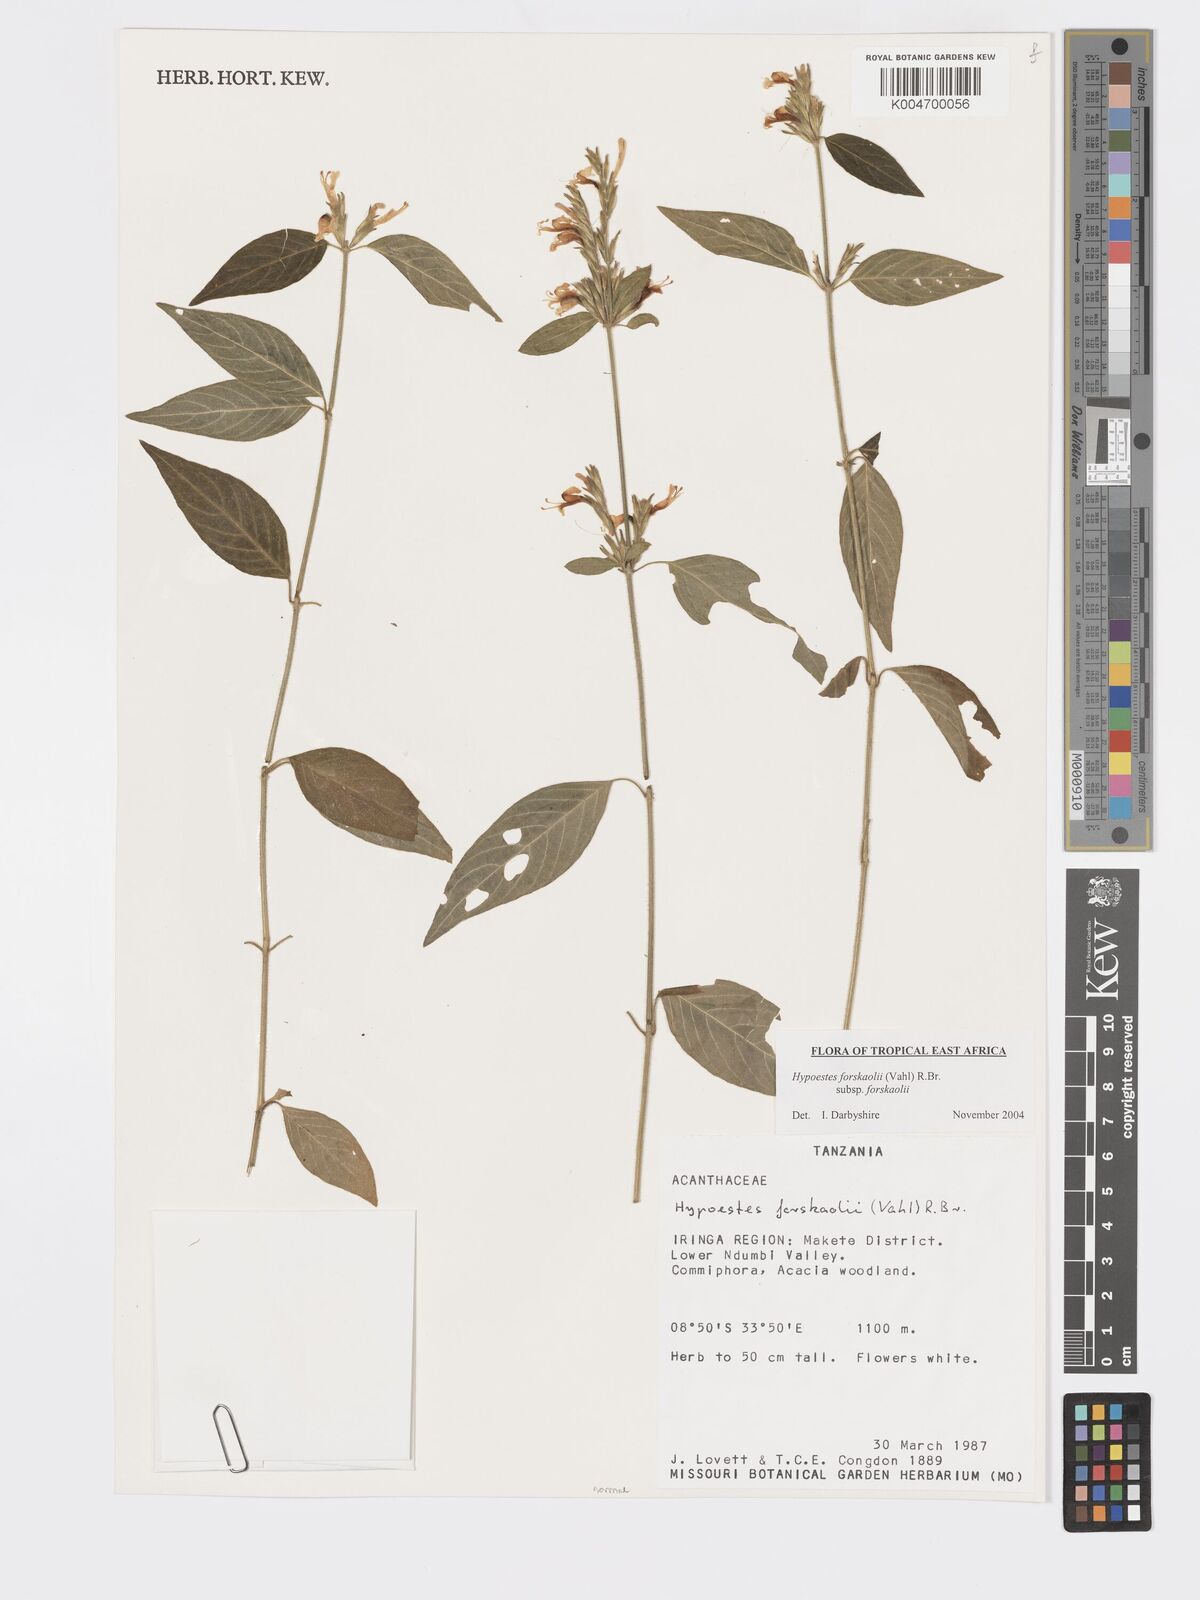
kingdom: Plantae
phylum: Tracheophyta
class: Magnoliopsida
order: Lamiales
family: Acanthaceae
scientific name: Acanthaceae
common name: Acanthaceae
